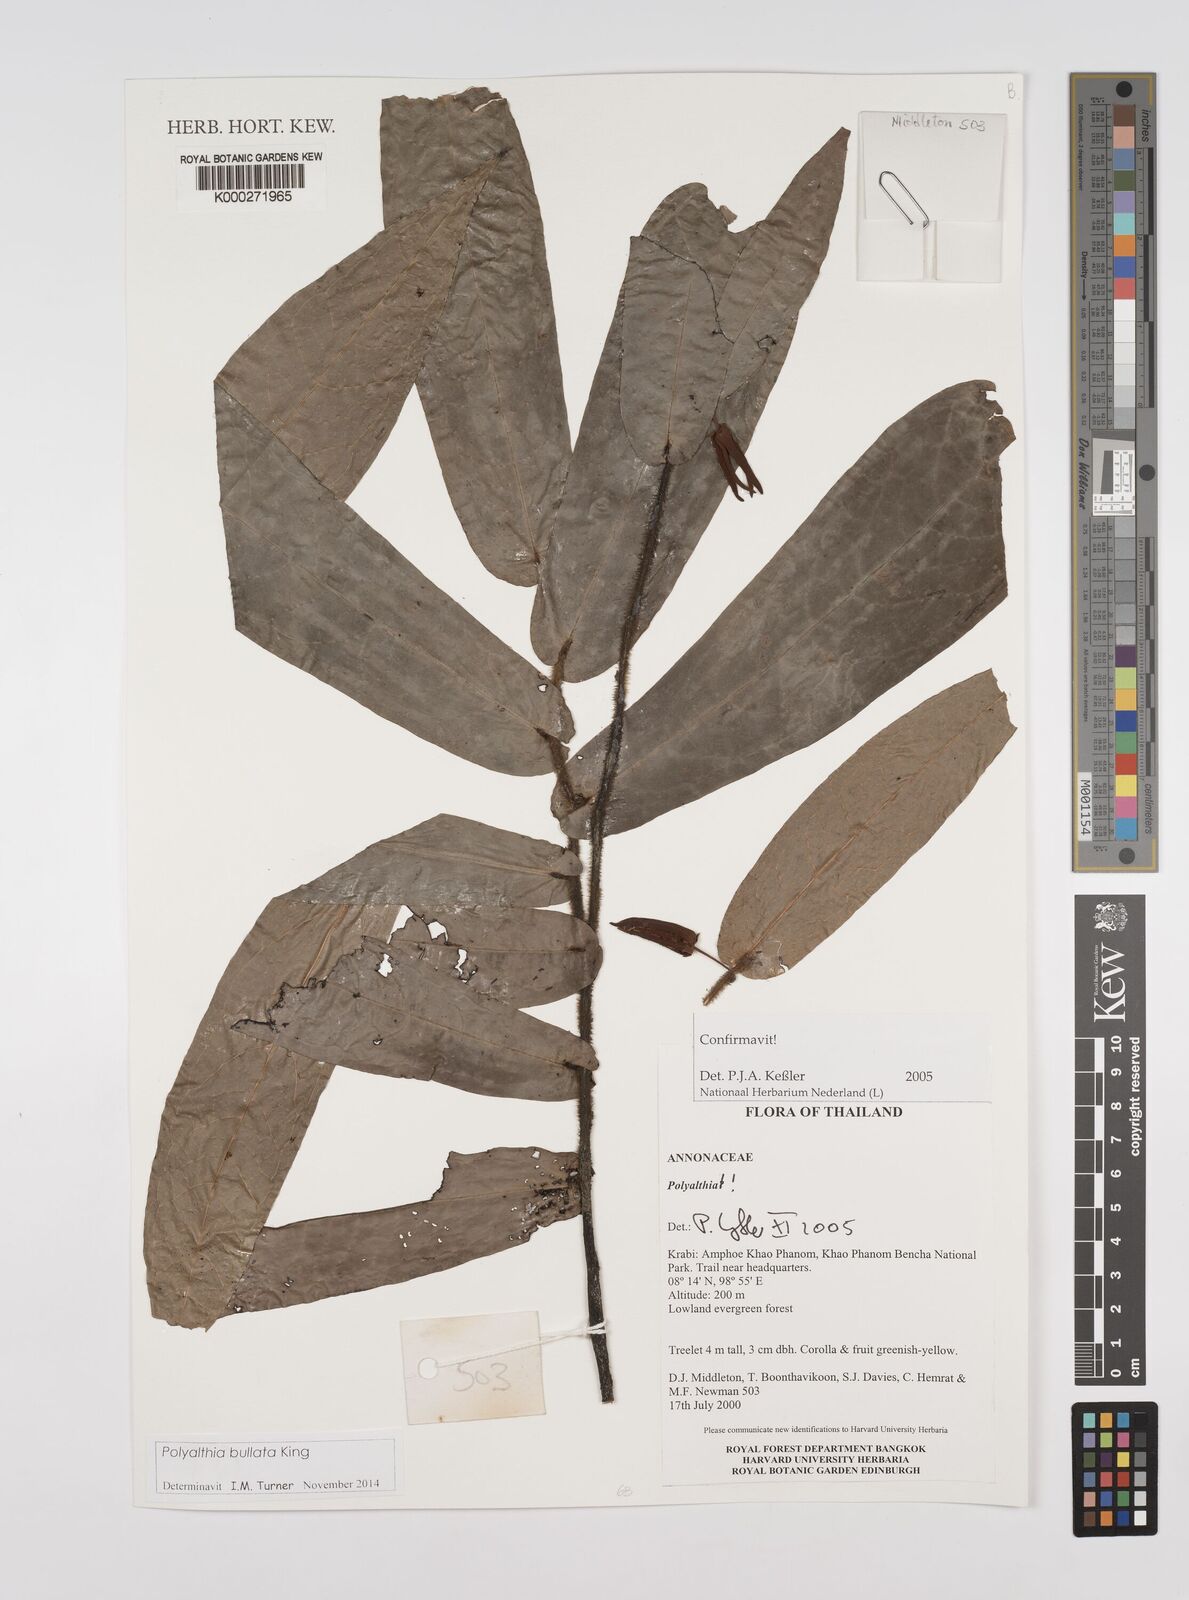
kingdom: Plantae
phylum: Tracheophyta
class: Magnoliopsida
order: Magnoliales
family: Annonaceae
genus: Polyalthia
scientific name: Polyalthia
